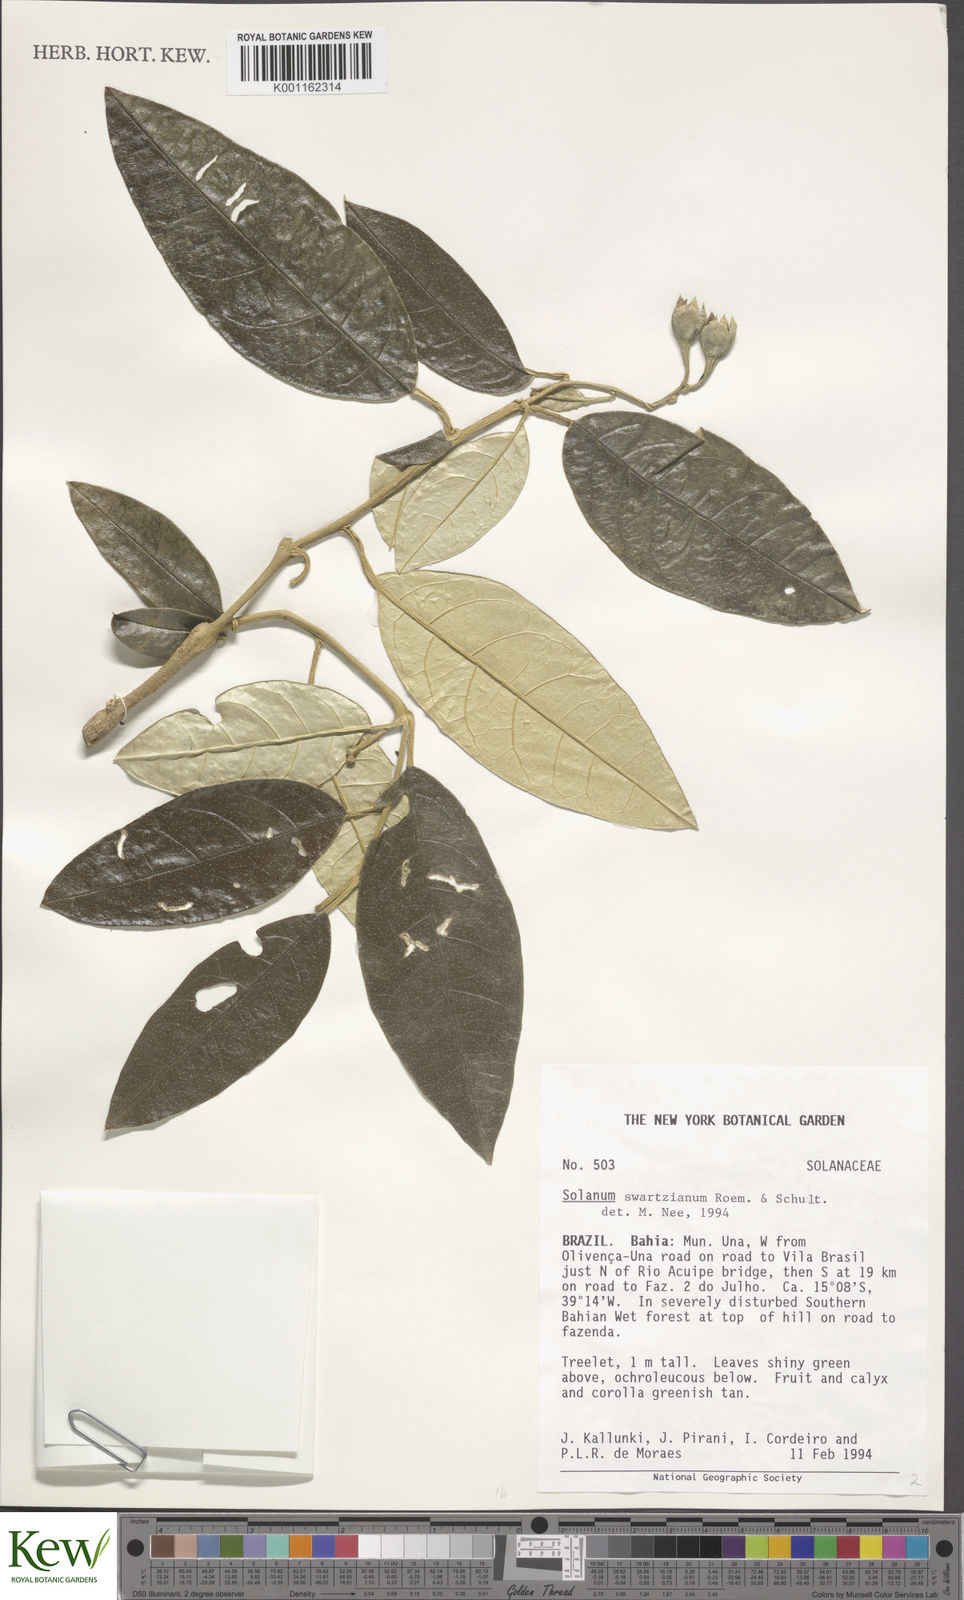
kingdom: Plantae
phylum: Tracheophyta
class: Magnoliopsida
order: Solanales
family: Solanaceae
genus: Solanum
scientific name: Solanum swartzianum
